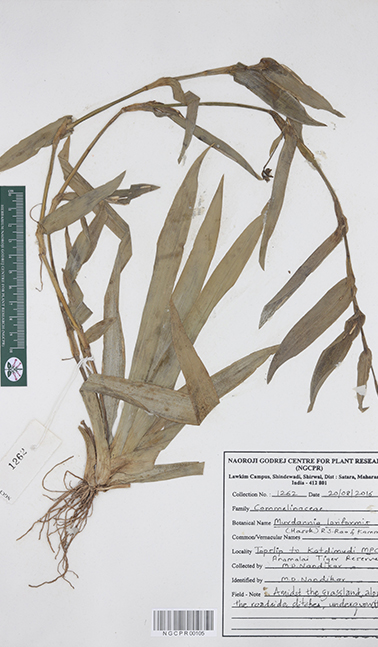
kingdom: Plantae
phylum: Tracheophyta
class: Liliopsida
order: Commelinales
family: Commelinaceae
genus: Murdannia
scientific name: Murdannia loriformis
